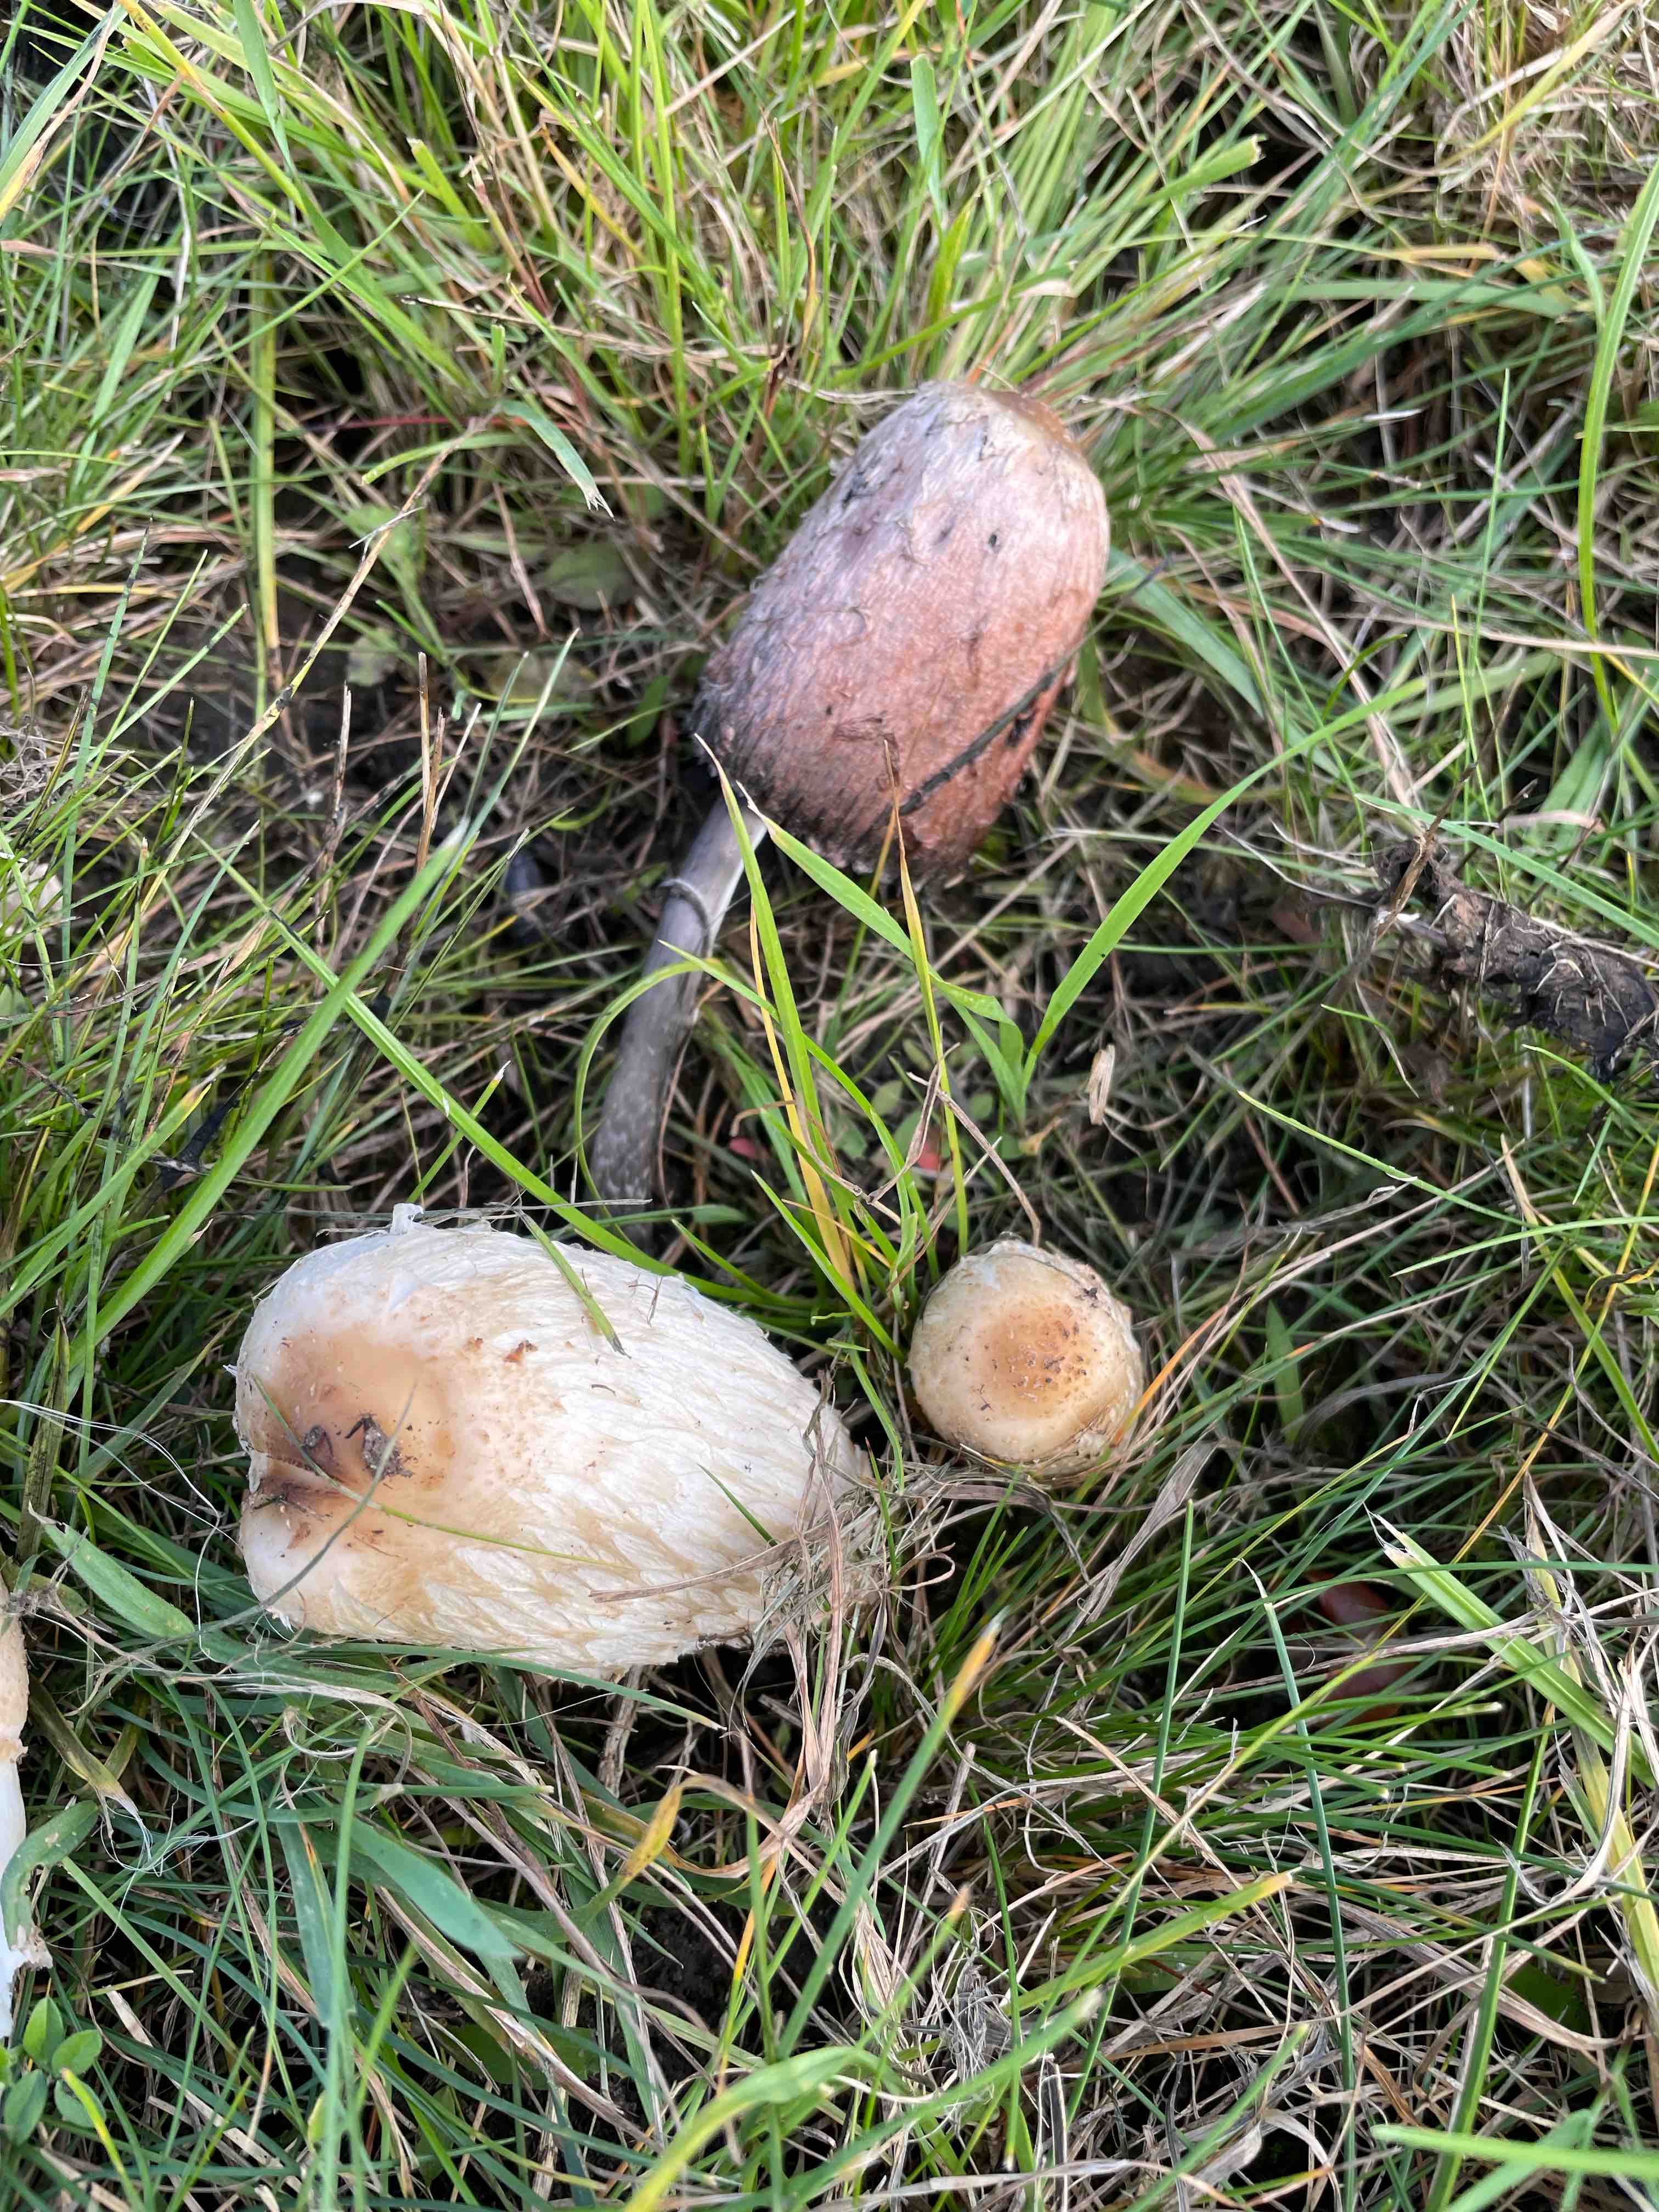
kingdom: Fungi
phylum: Basidiomycota
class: Agaricomycetes
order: Agaricales
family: Agaricaceae
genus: Coprinus
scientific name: Coprinus comatus
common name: stor parykhat
